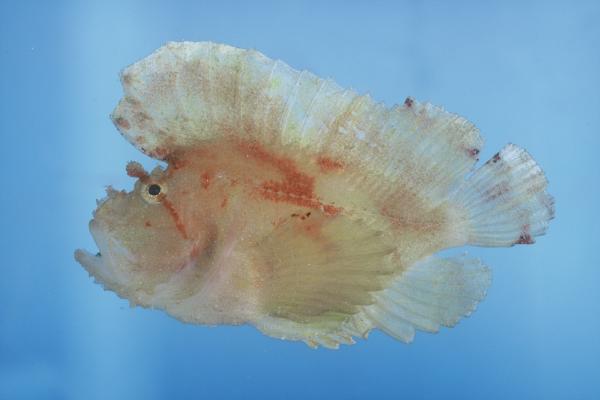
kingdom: Animalia
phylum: Chordata
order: Scorpaeniformes
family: Scorpaenidae
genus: Taenianotus
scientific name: Taenianotus triacanthus
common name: Leaf scorpionfish
